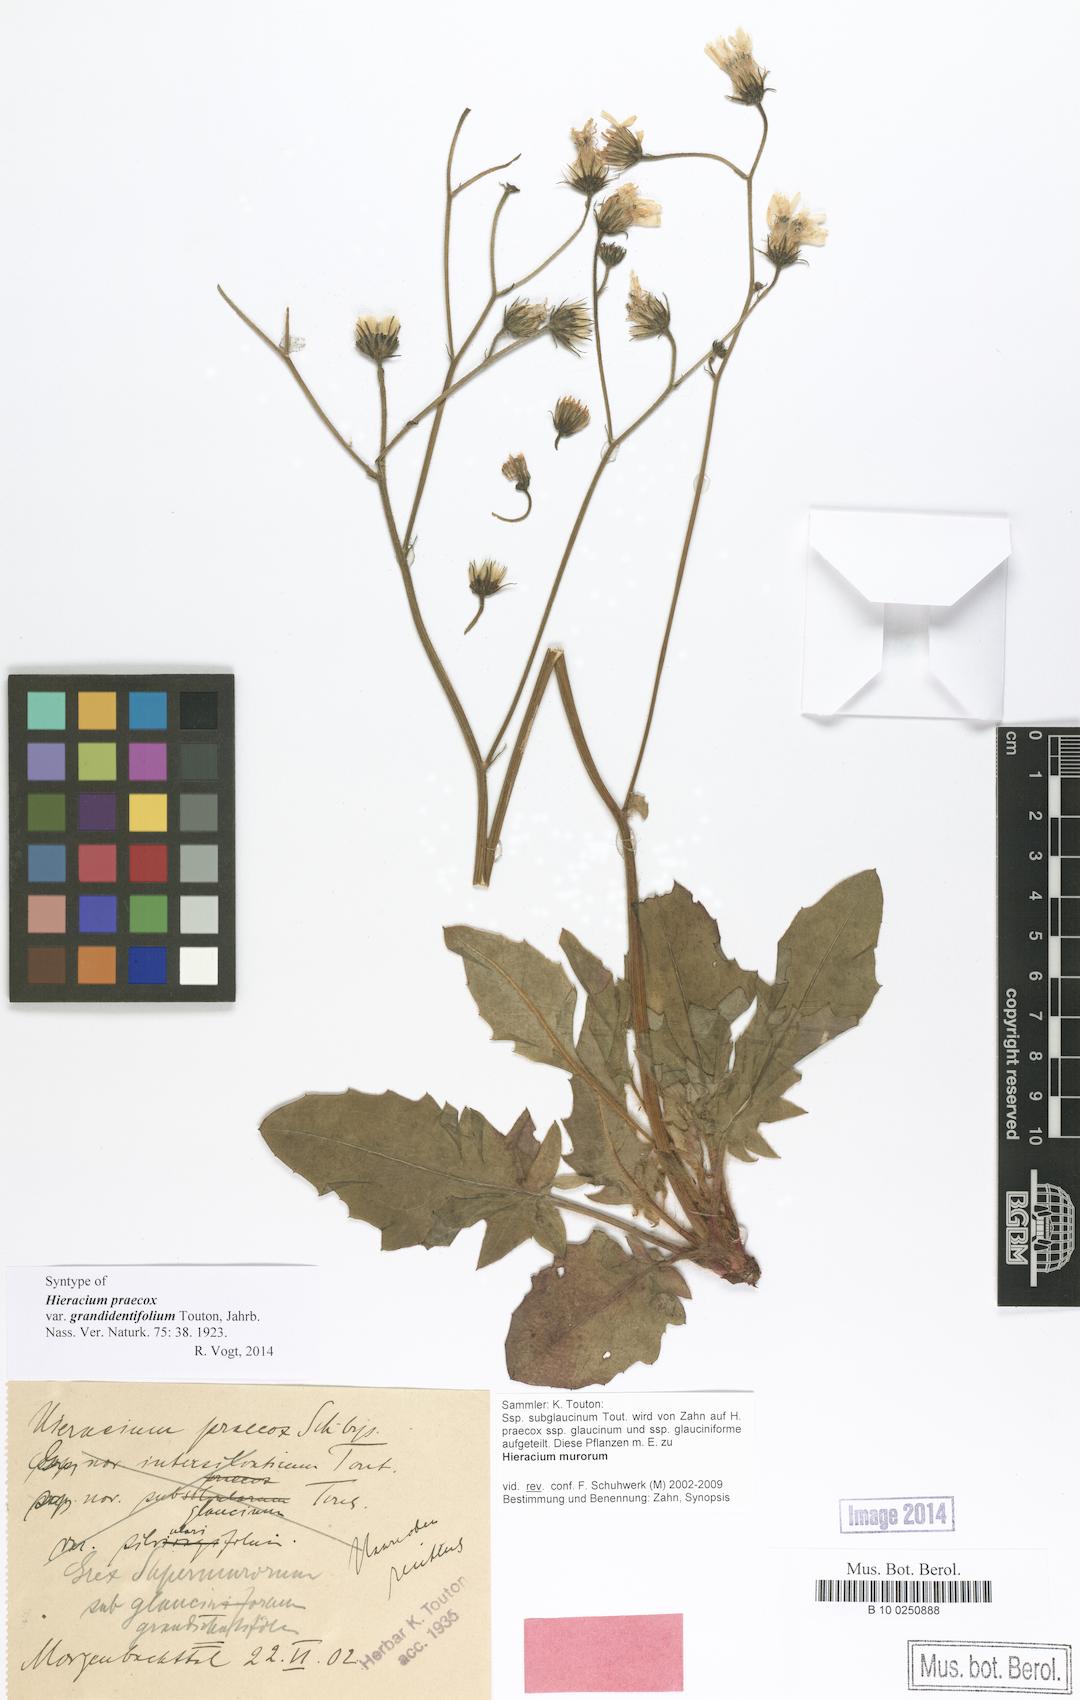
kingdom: Plantae
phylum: Tracheophyta
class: Magnoliopsida
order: Asterales
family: Asteraceae
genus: Hieracium
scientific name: Hieracium praecox
